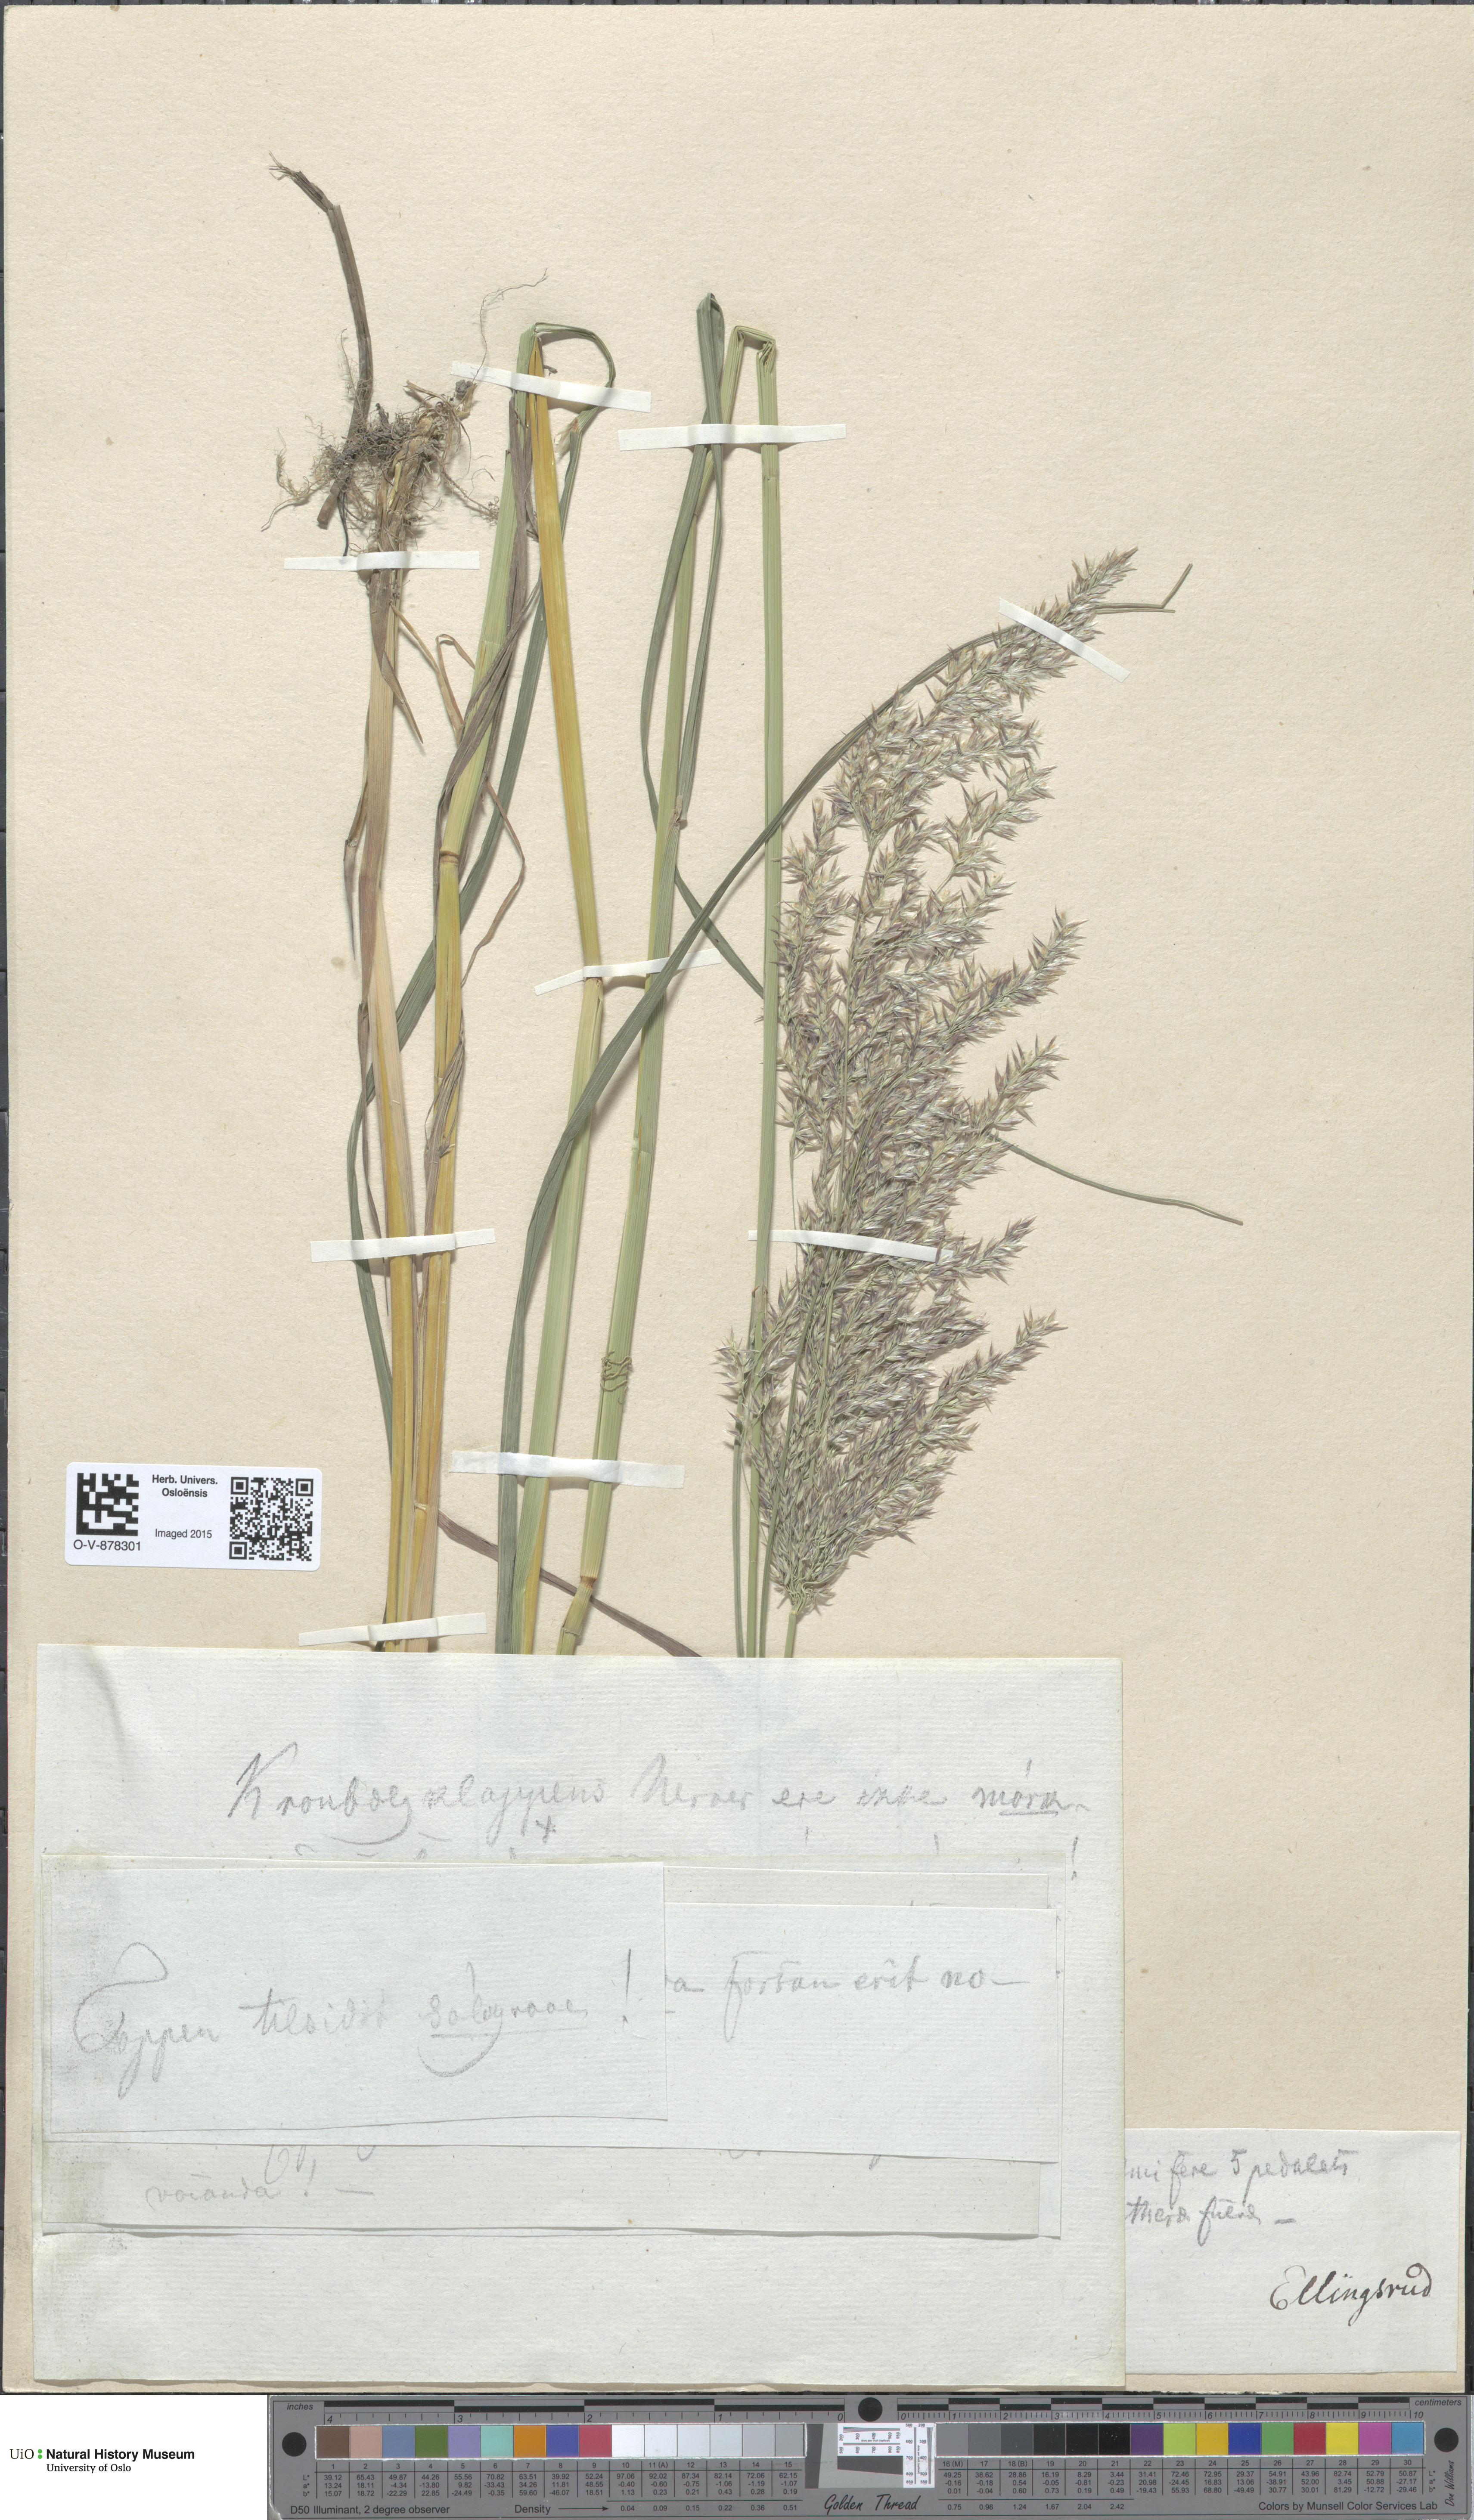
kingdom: Plantae
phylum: Tracheophyta
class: Liliopsida
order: Poales
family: Poaceae
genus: Calamagrostis
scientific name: Calamagrostis purpurea
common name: Scandinavian small-reed
